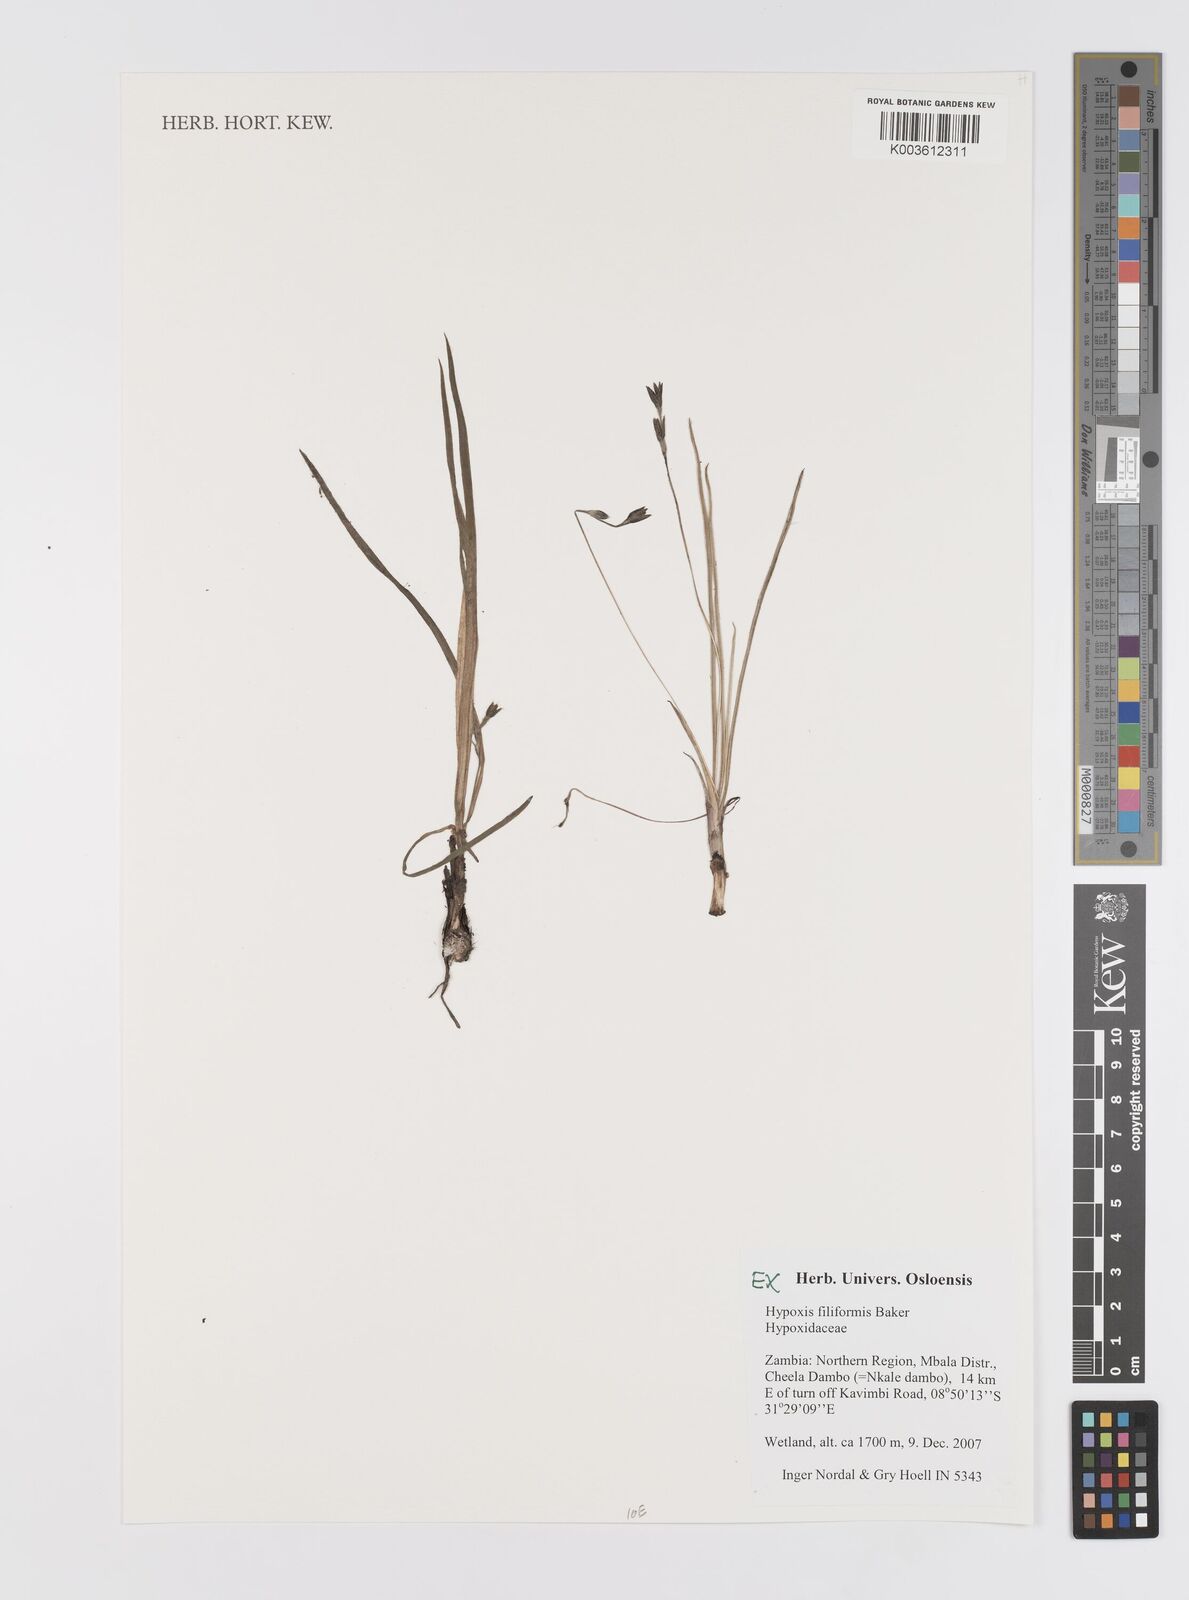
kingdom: Plantae
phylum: Tracheophyta
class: Liliopsida
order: Asparagales
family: Hypoxidaceae
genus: Hypoxis
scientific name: Hypoxis filiformis
